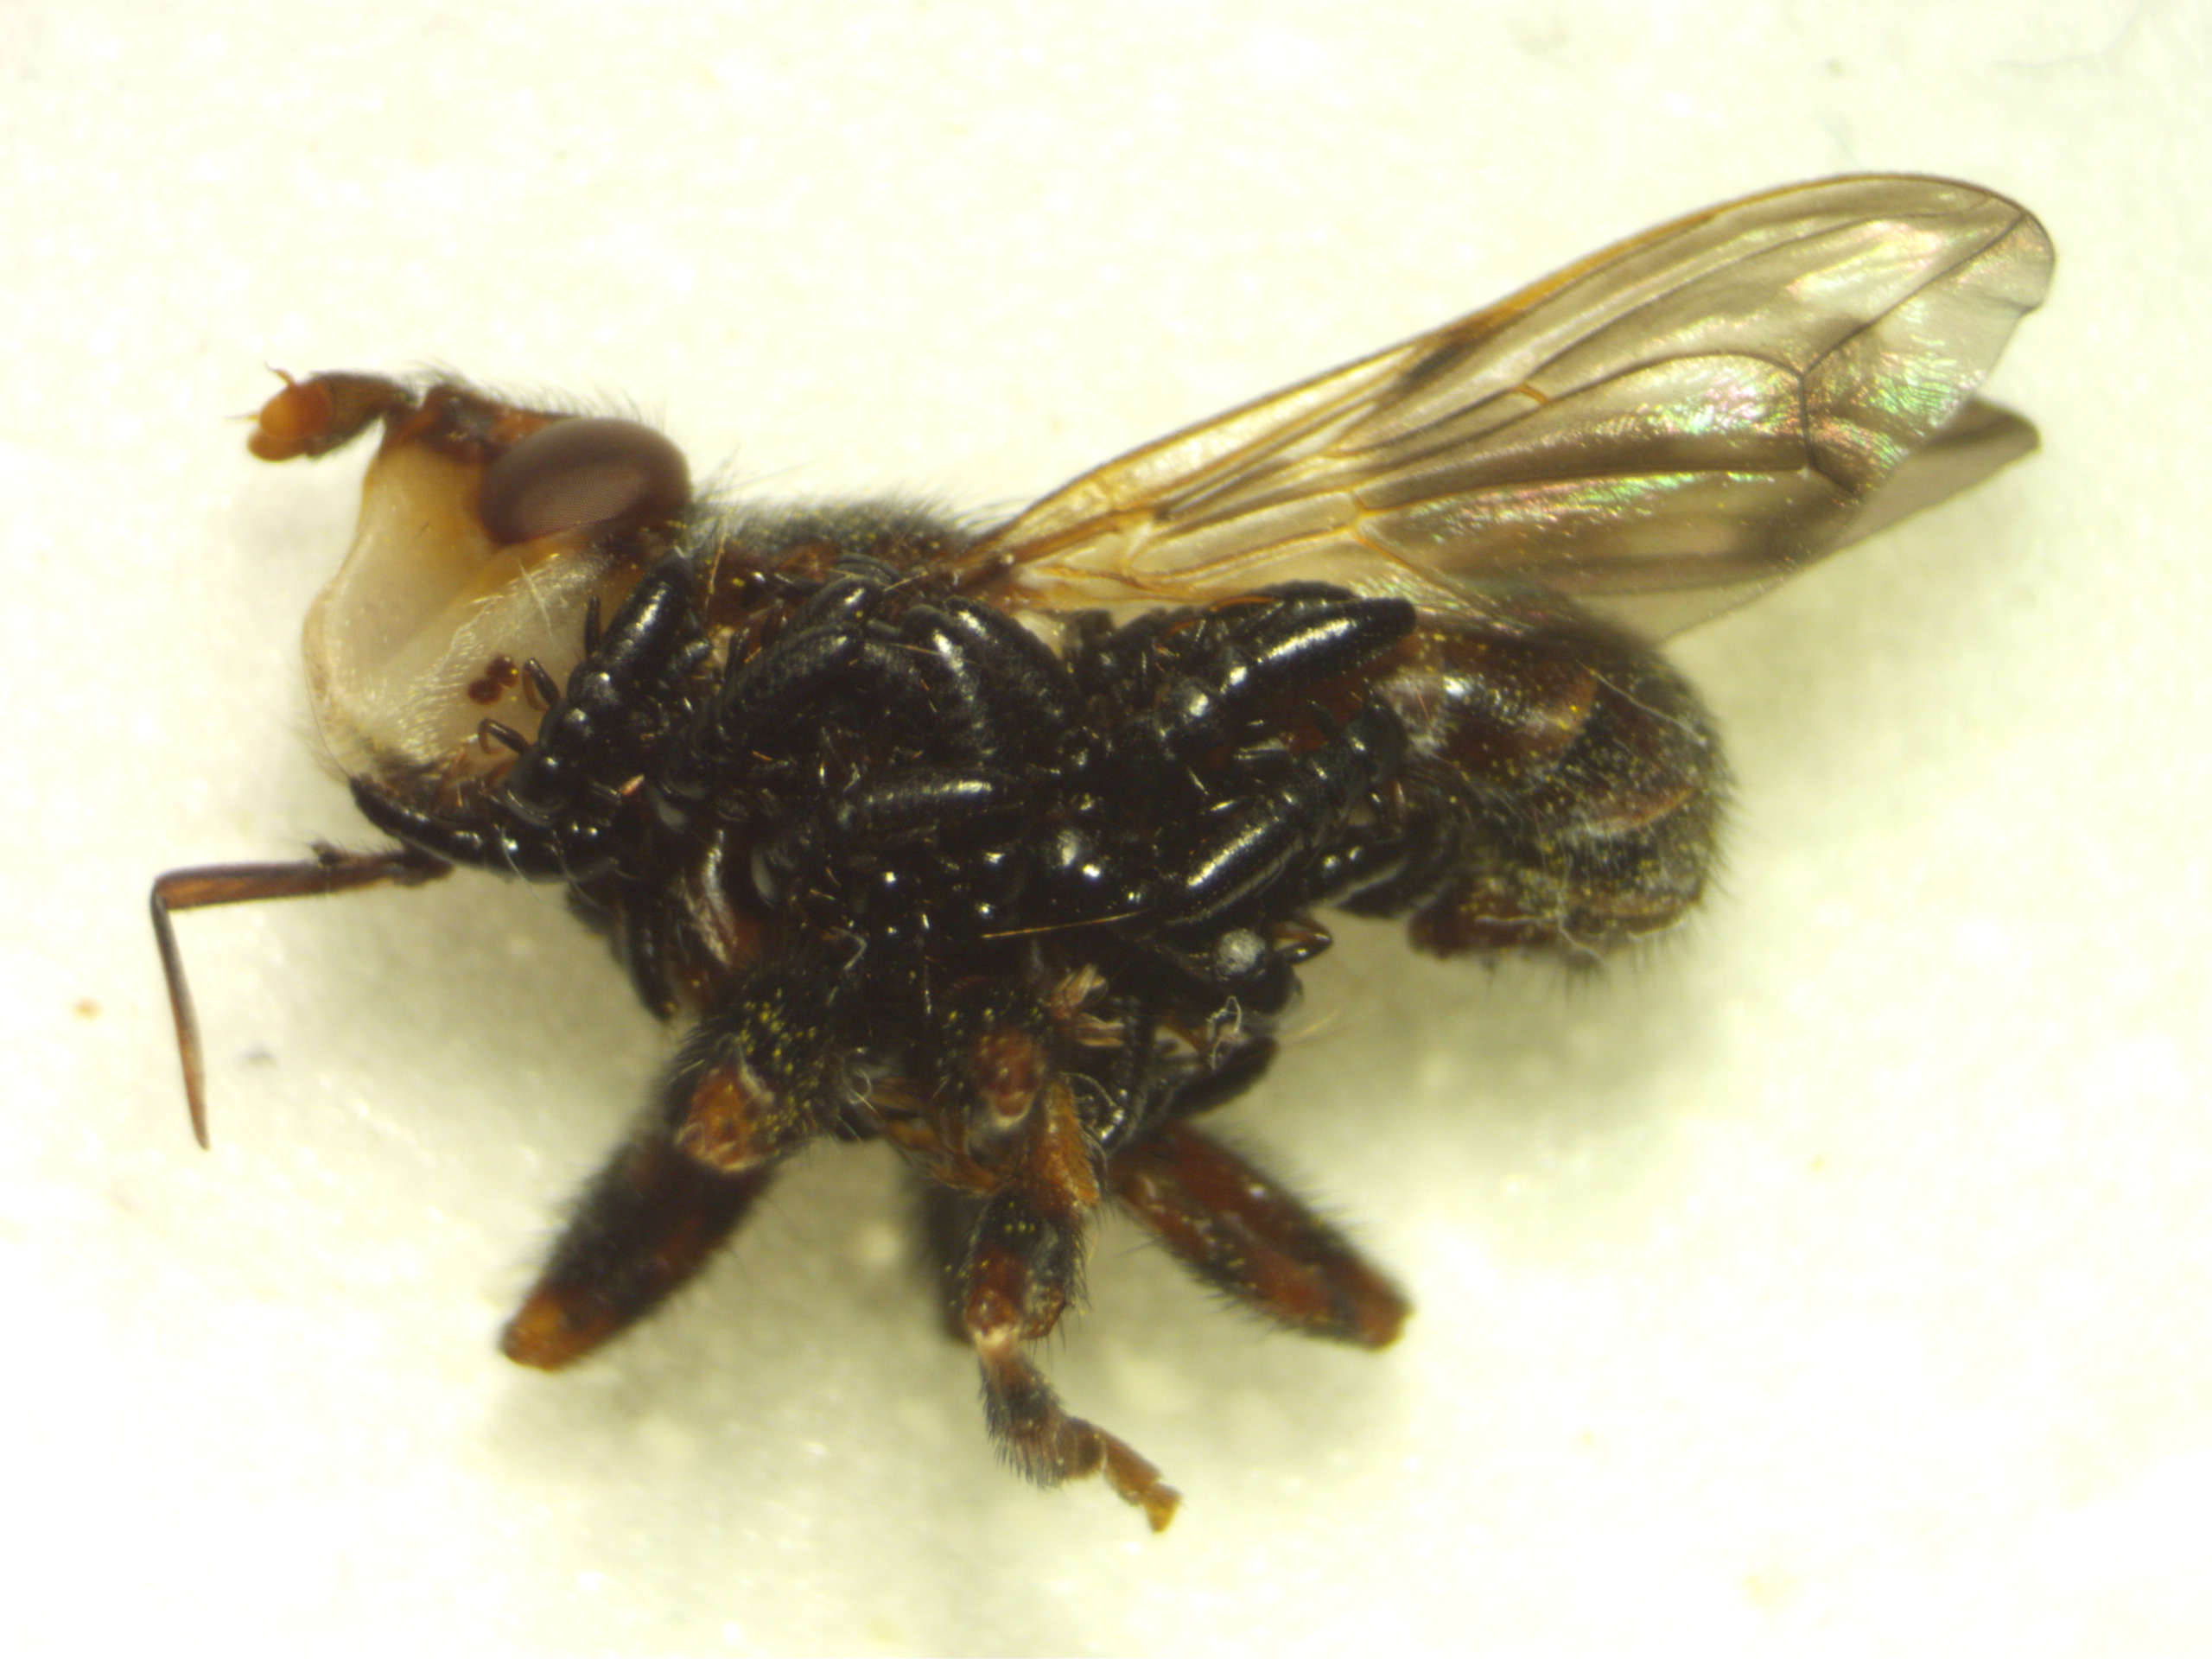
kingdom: Animalia
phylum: Arthropoda
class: Insecta
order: Diptera
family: Conopidae
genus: Myopa
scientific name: Myopa buccata
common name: Brun hvepseflue
